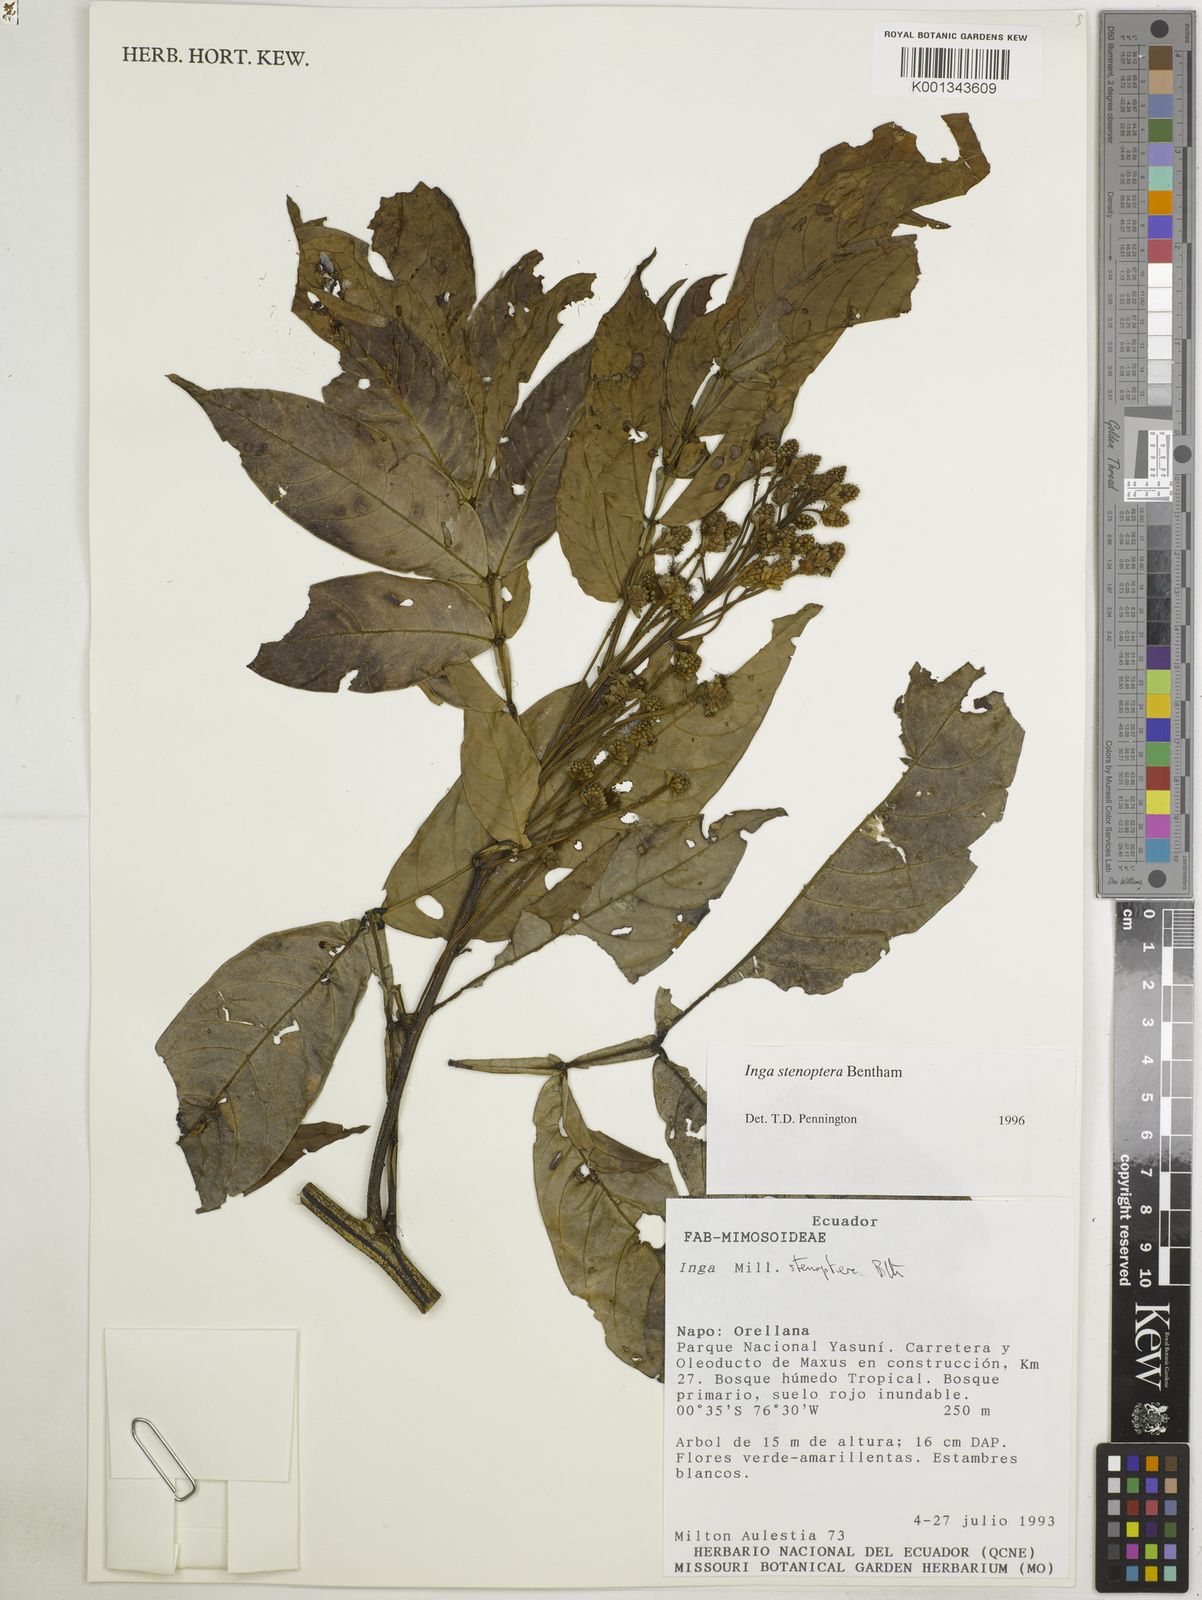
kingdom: Plantae
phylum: Tracheophyta
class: Magnoliopsida
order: Fabales
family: Fabaceae
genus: Inga
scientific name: Inga stenoptera
